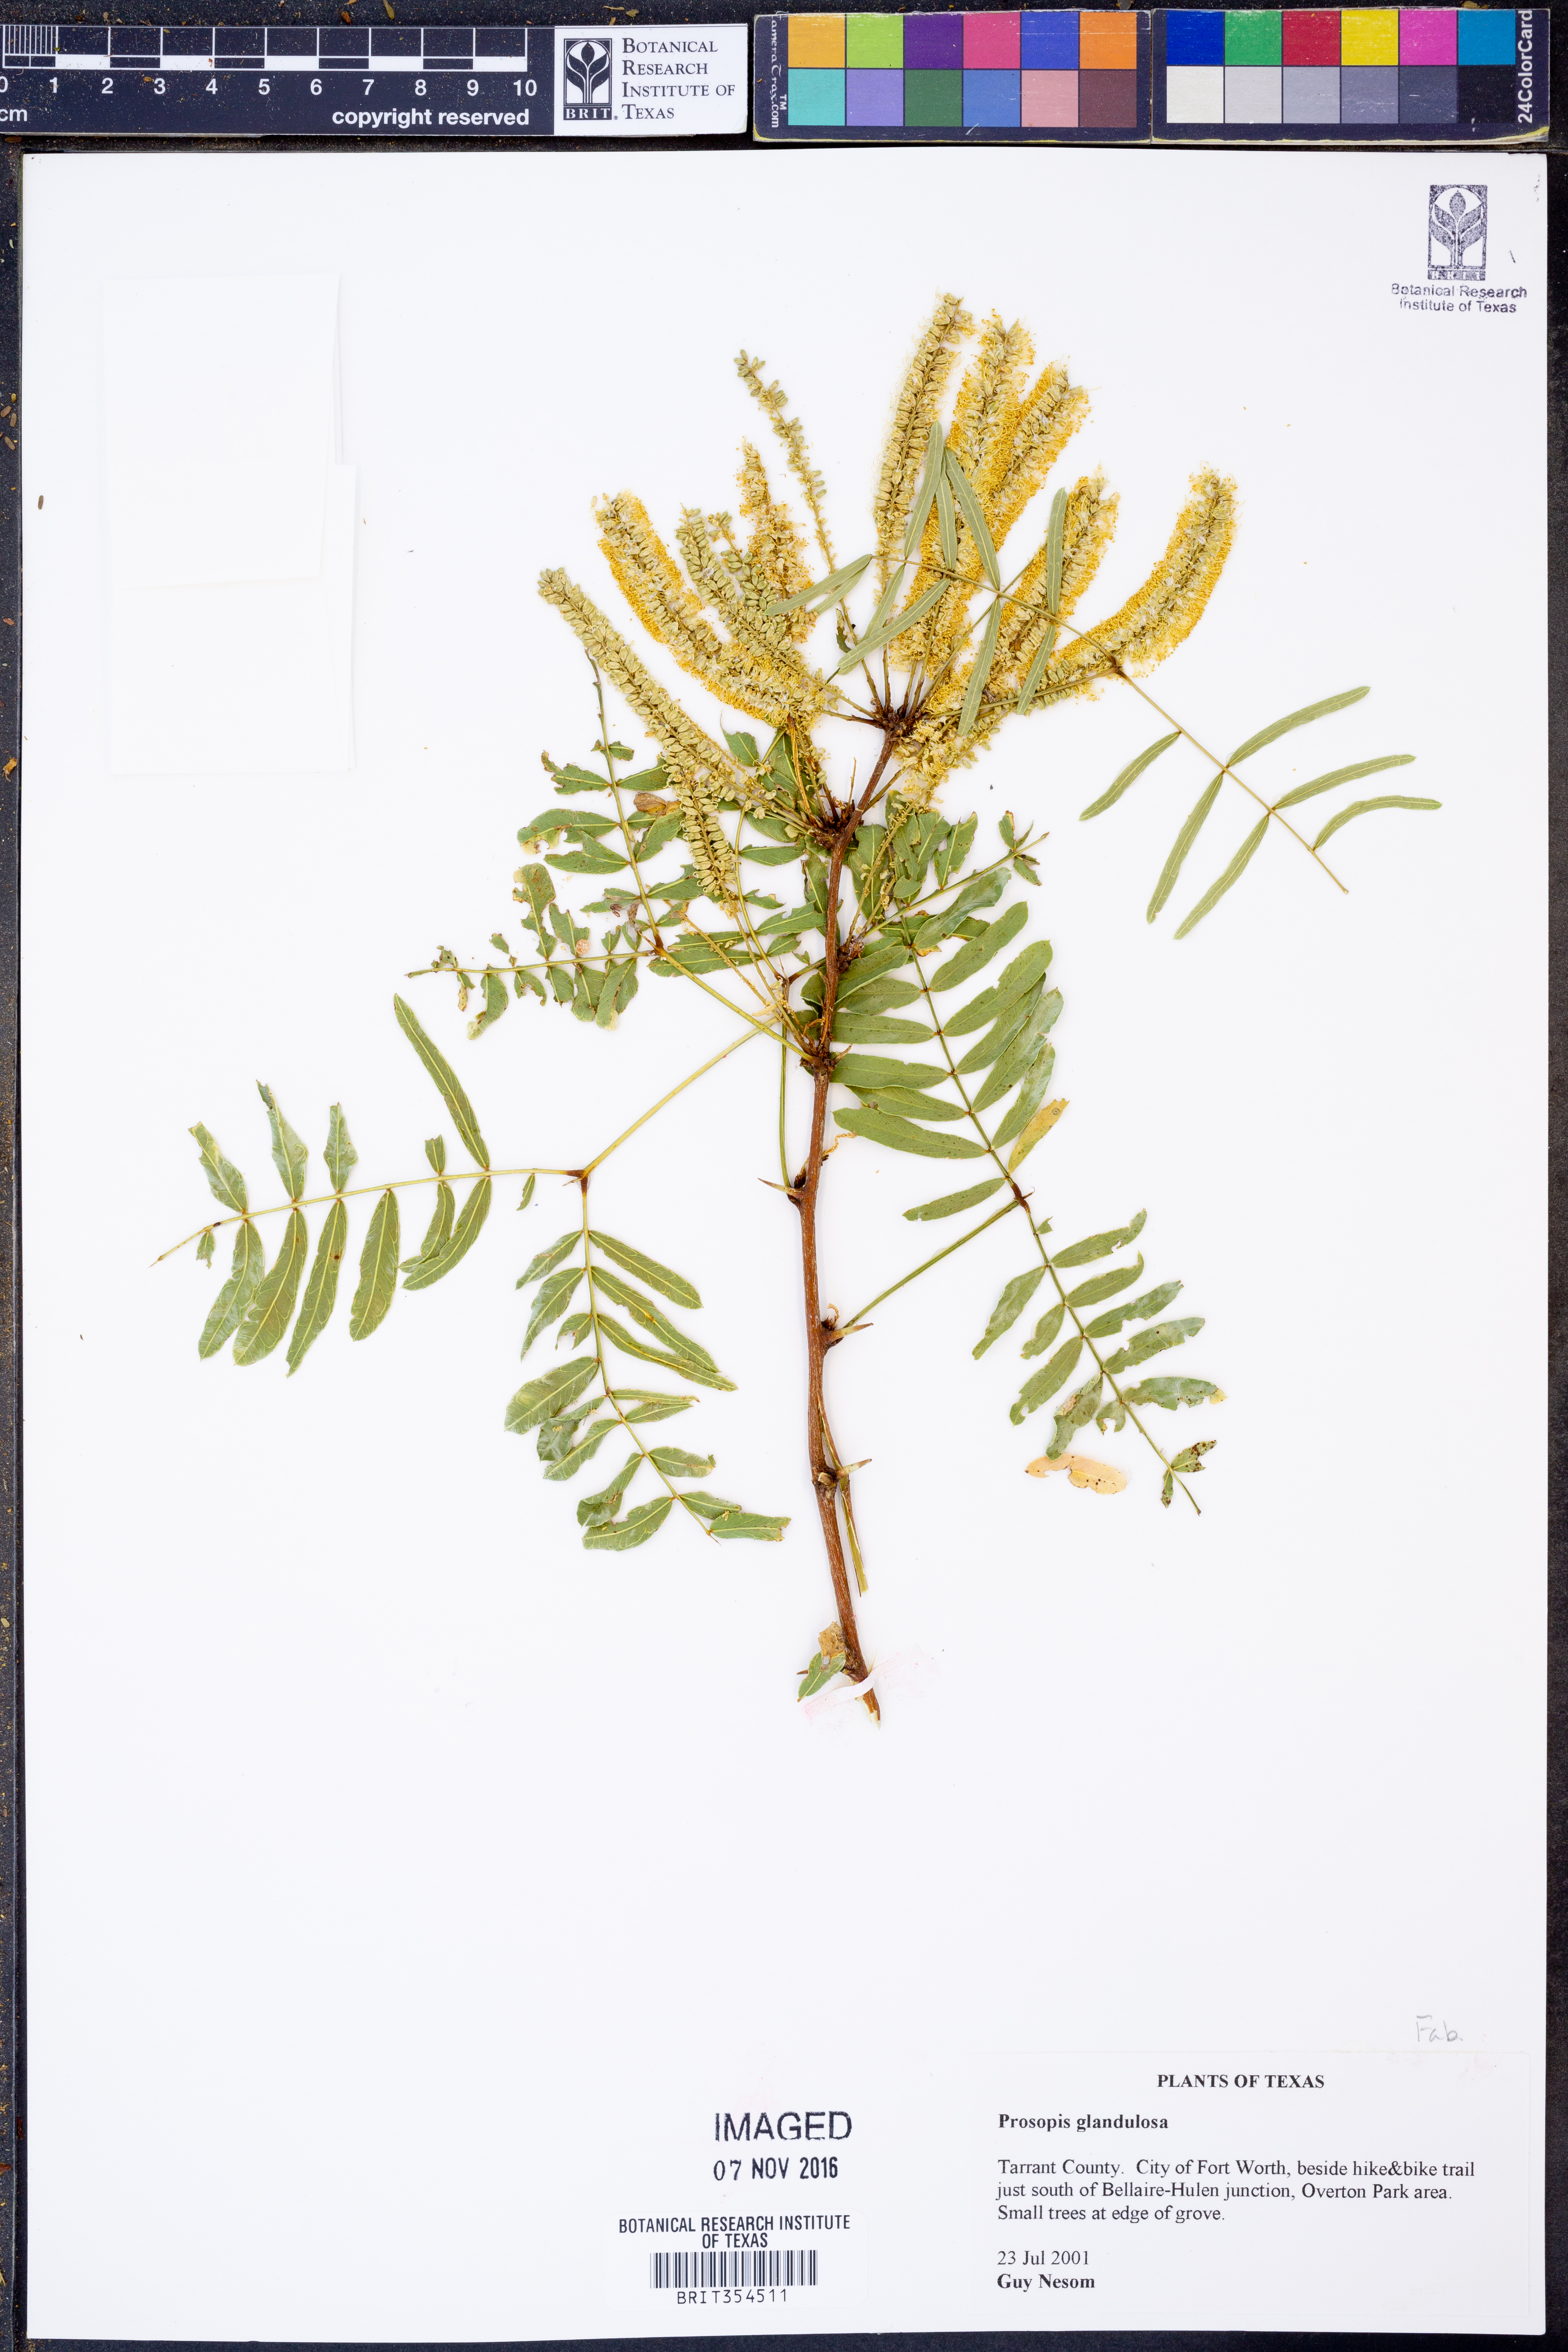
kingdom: Plantae
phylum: Tracheophyta
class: Magnoliopsida
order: Fabales
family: Fabaceae
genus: Prosopis
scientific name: Prosopis glandulosa
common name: Honey mesquite
